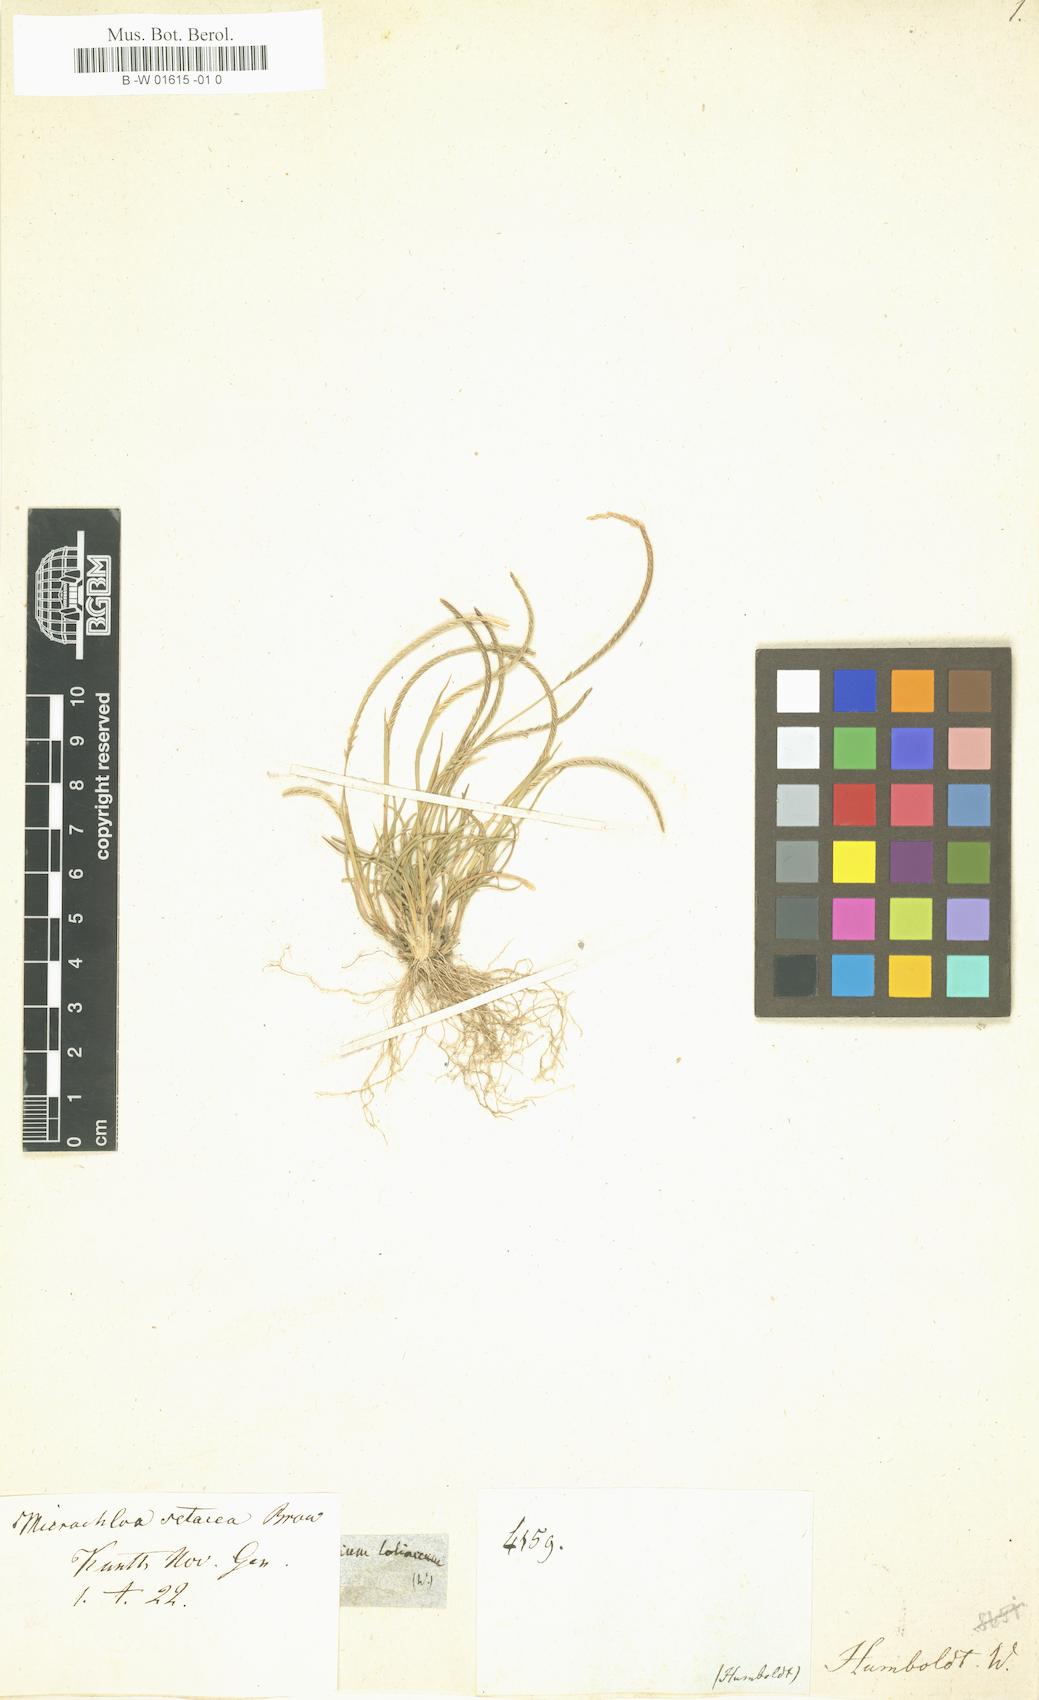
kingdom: Plantae
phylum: Tracheophyta
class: Liliopsida
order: Poales
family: Poaceae
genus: Microchloa
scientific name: Microchloa indica
